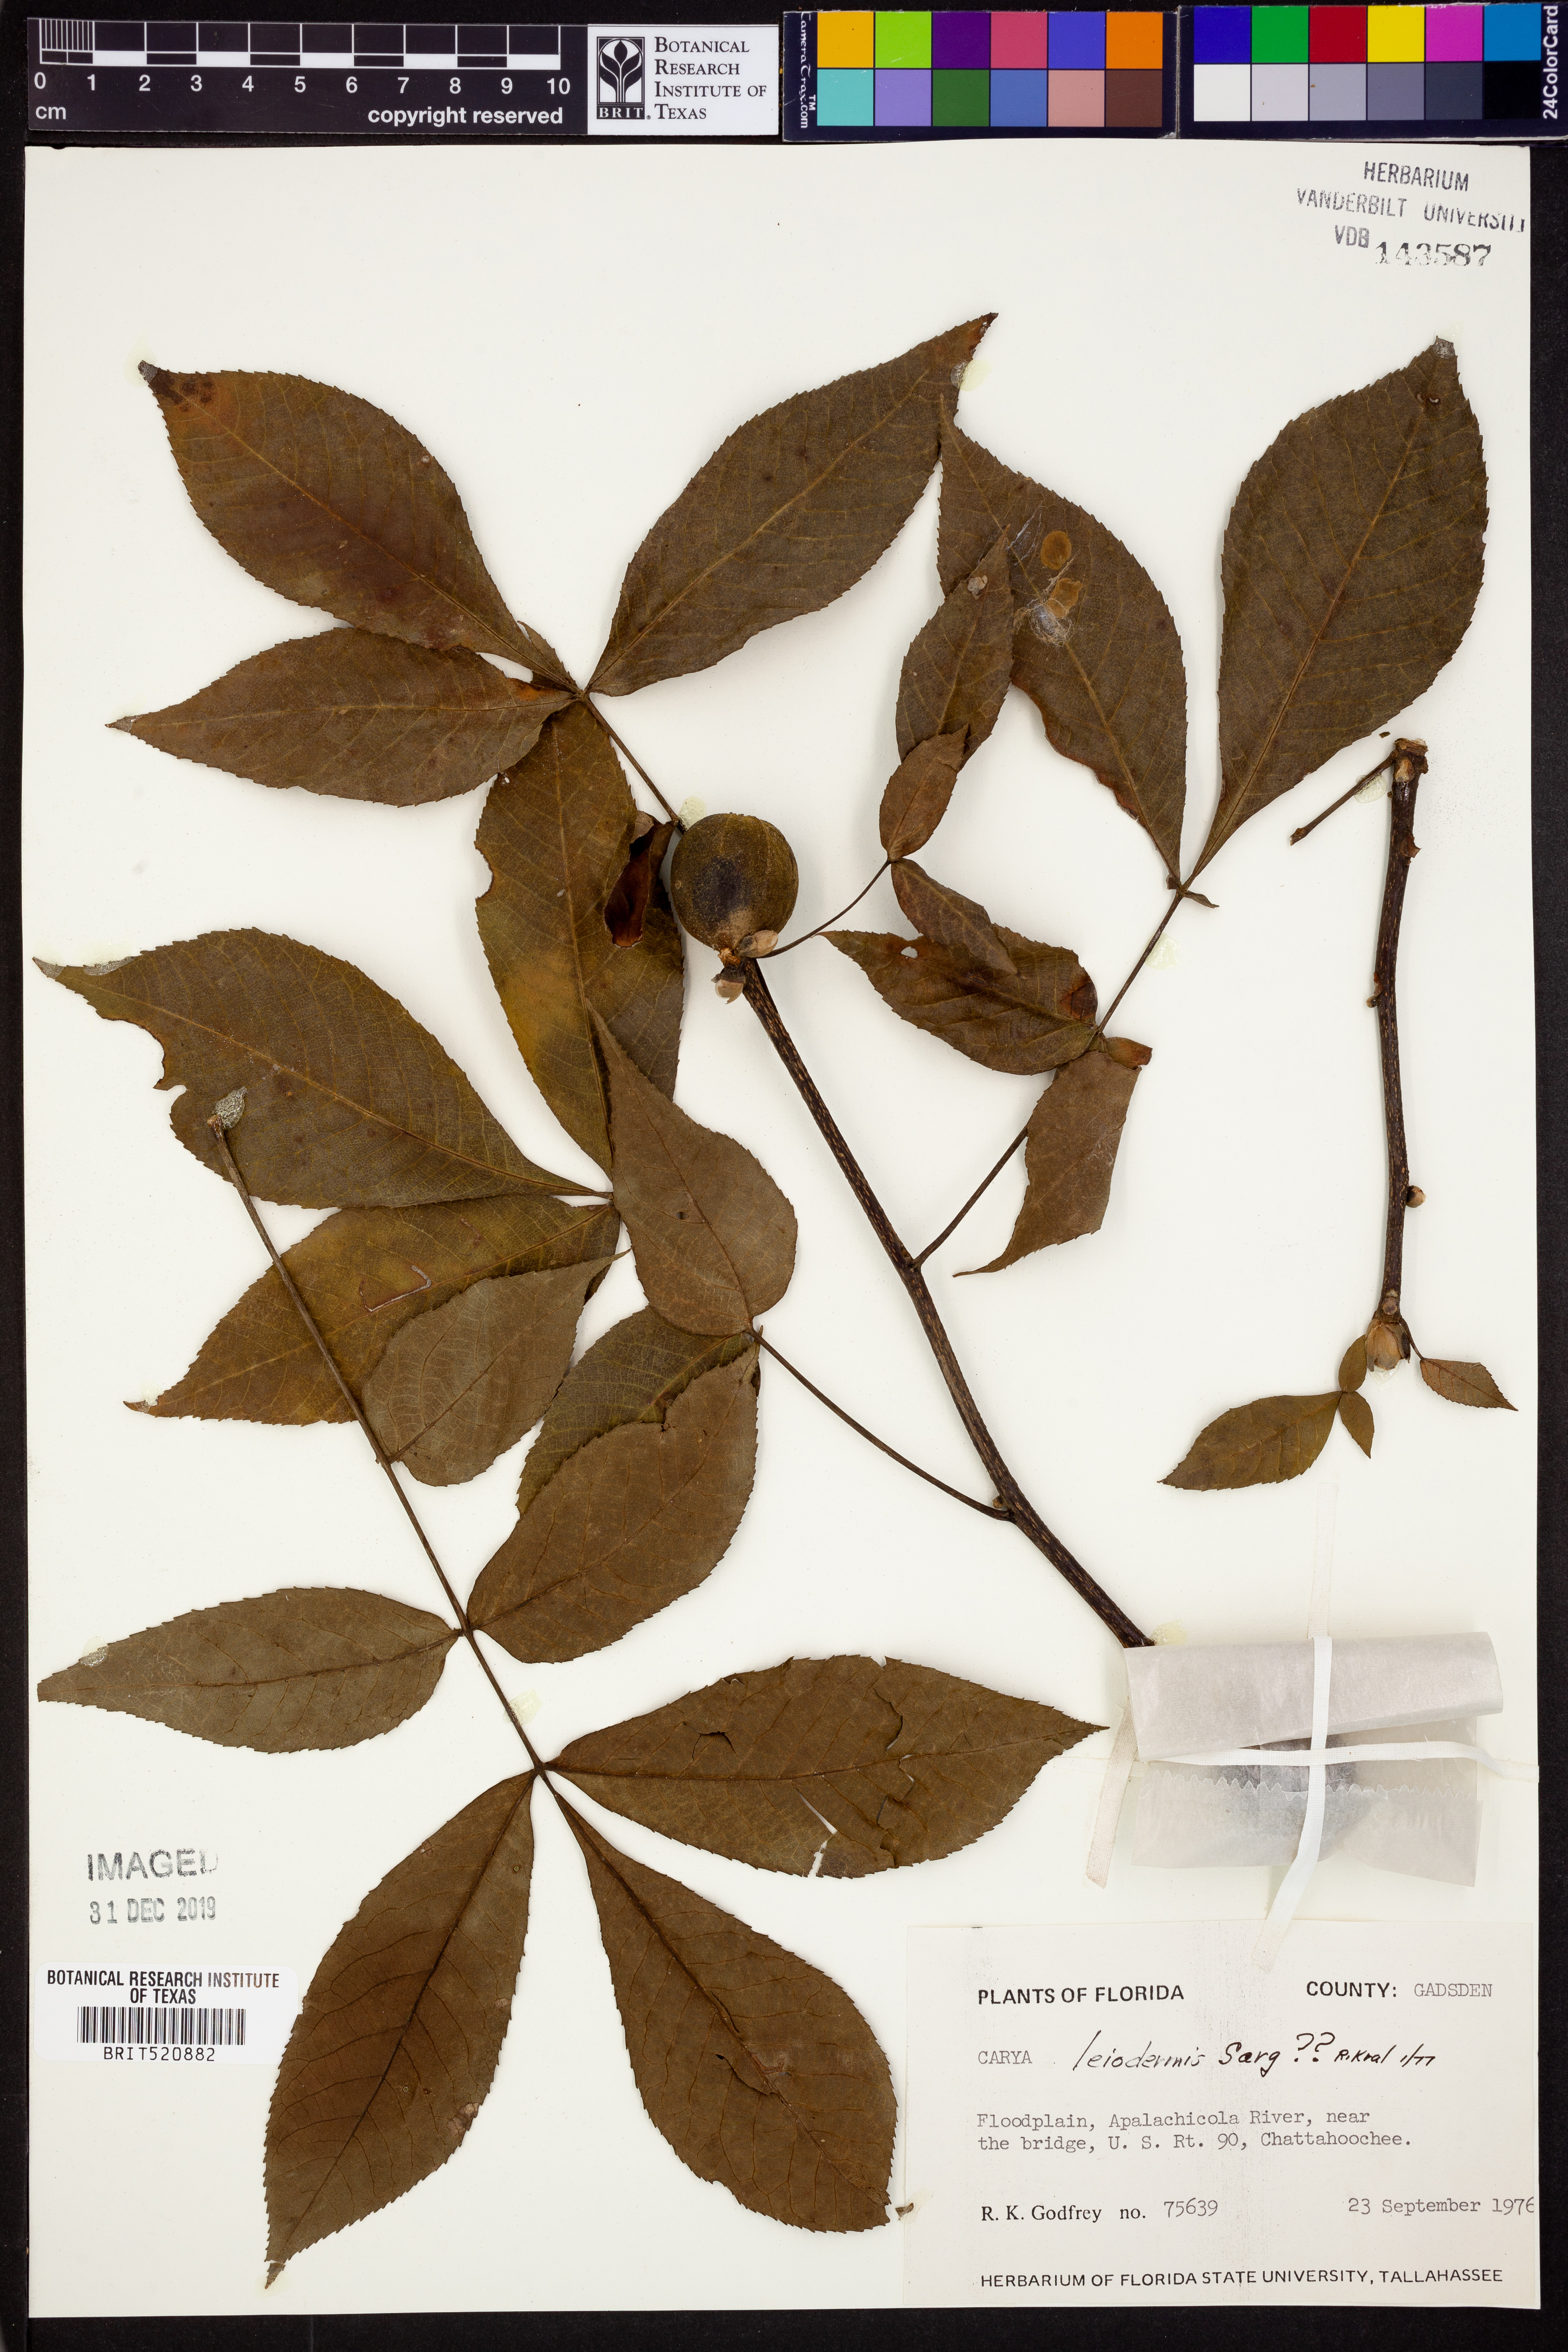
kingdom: Plantae
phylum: Tracheophyta
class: Magnoliopsida
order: Fagales
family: Juglandaceae
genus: Carya
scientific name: Carya glabra
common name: Pignut hickory
